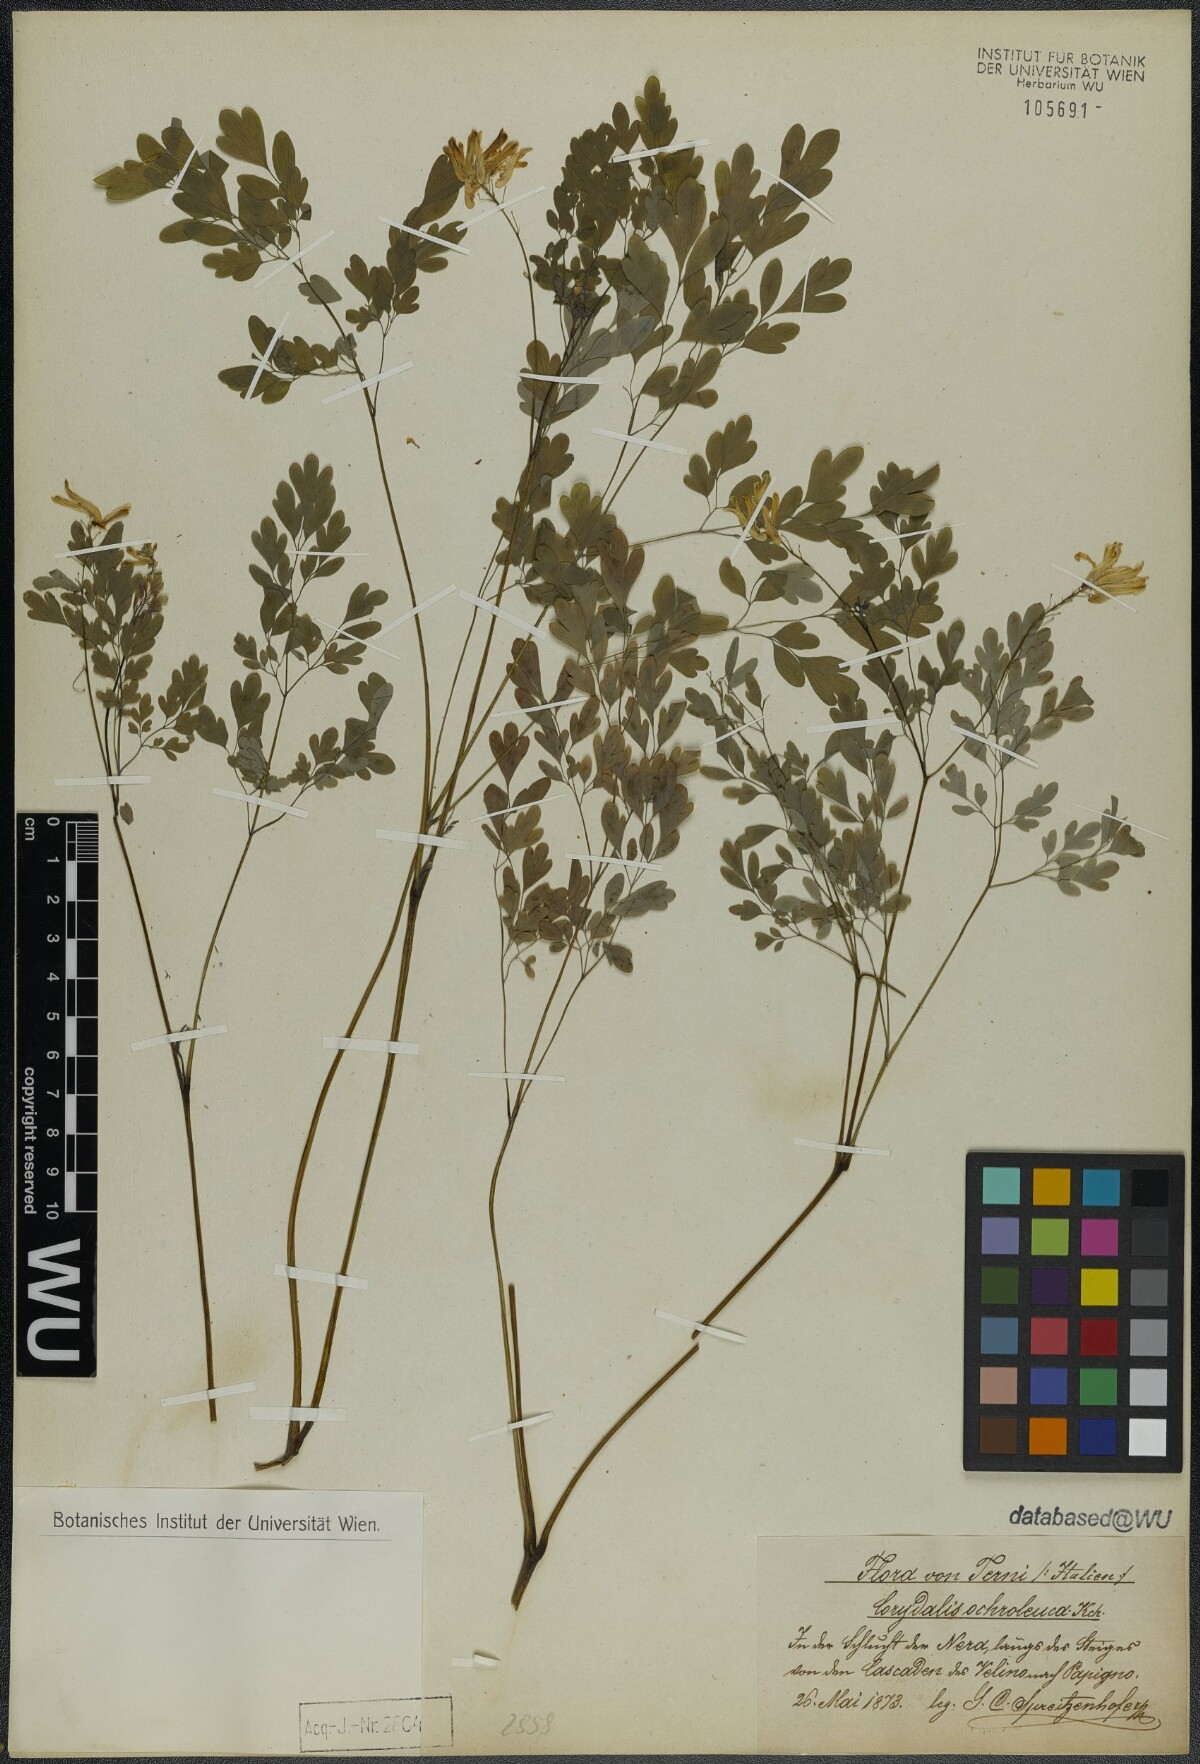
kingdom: Plantae
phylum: Tracheophyta
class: Magnoliopsida
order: Ranunculales
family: Papaveraceae
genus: Pseudofumaria
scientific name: Pseudofumaria alba
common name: Pale corydalis
